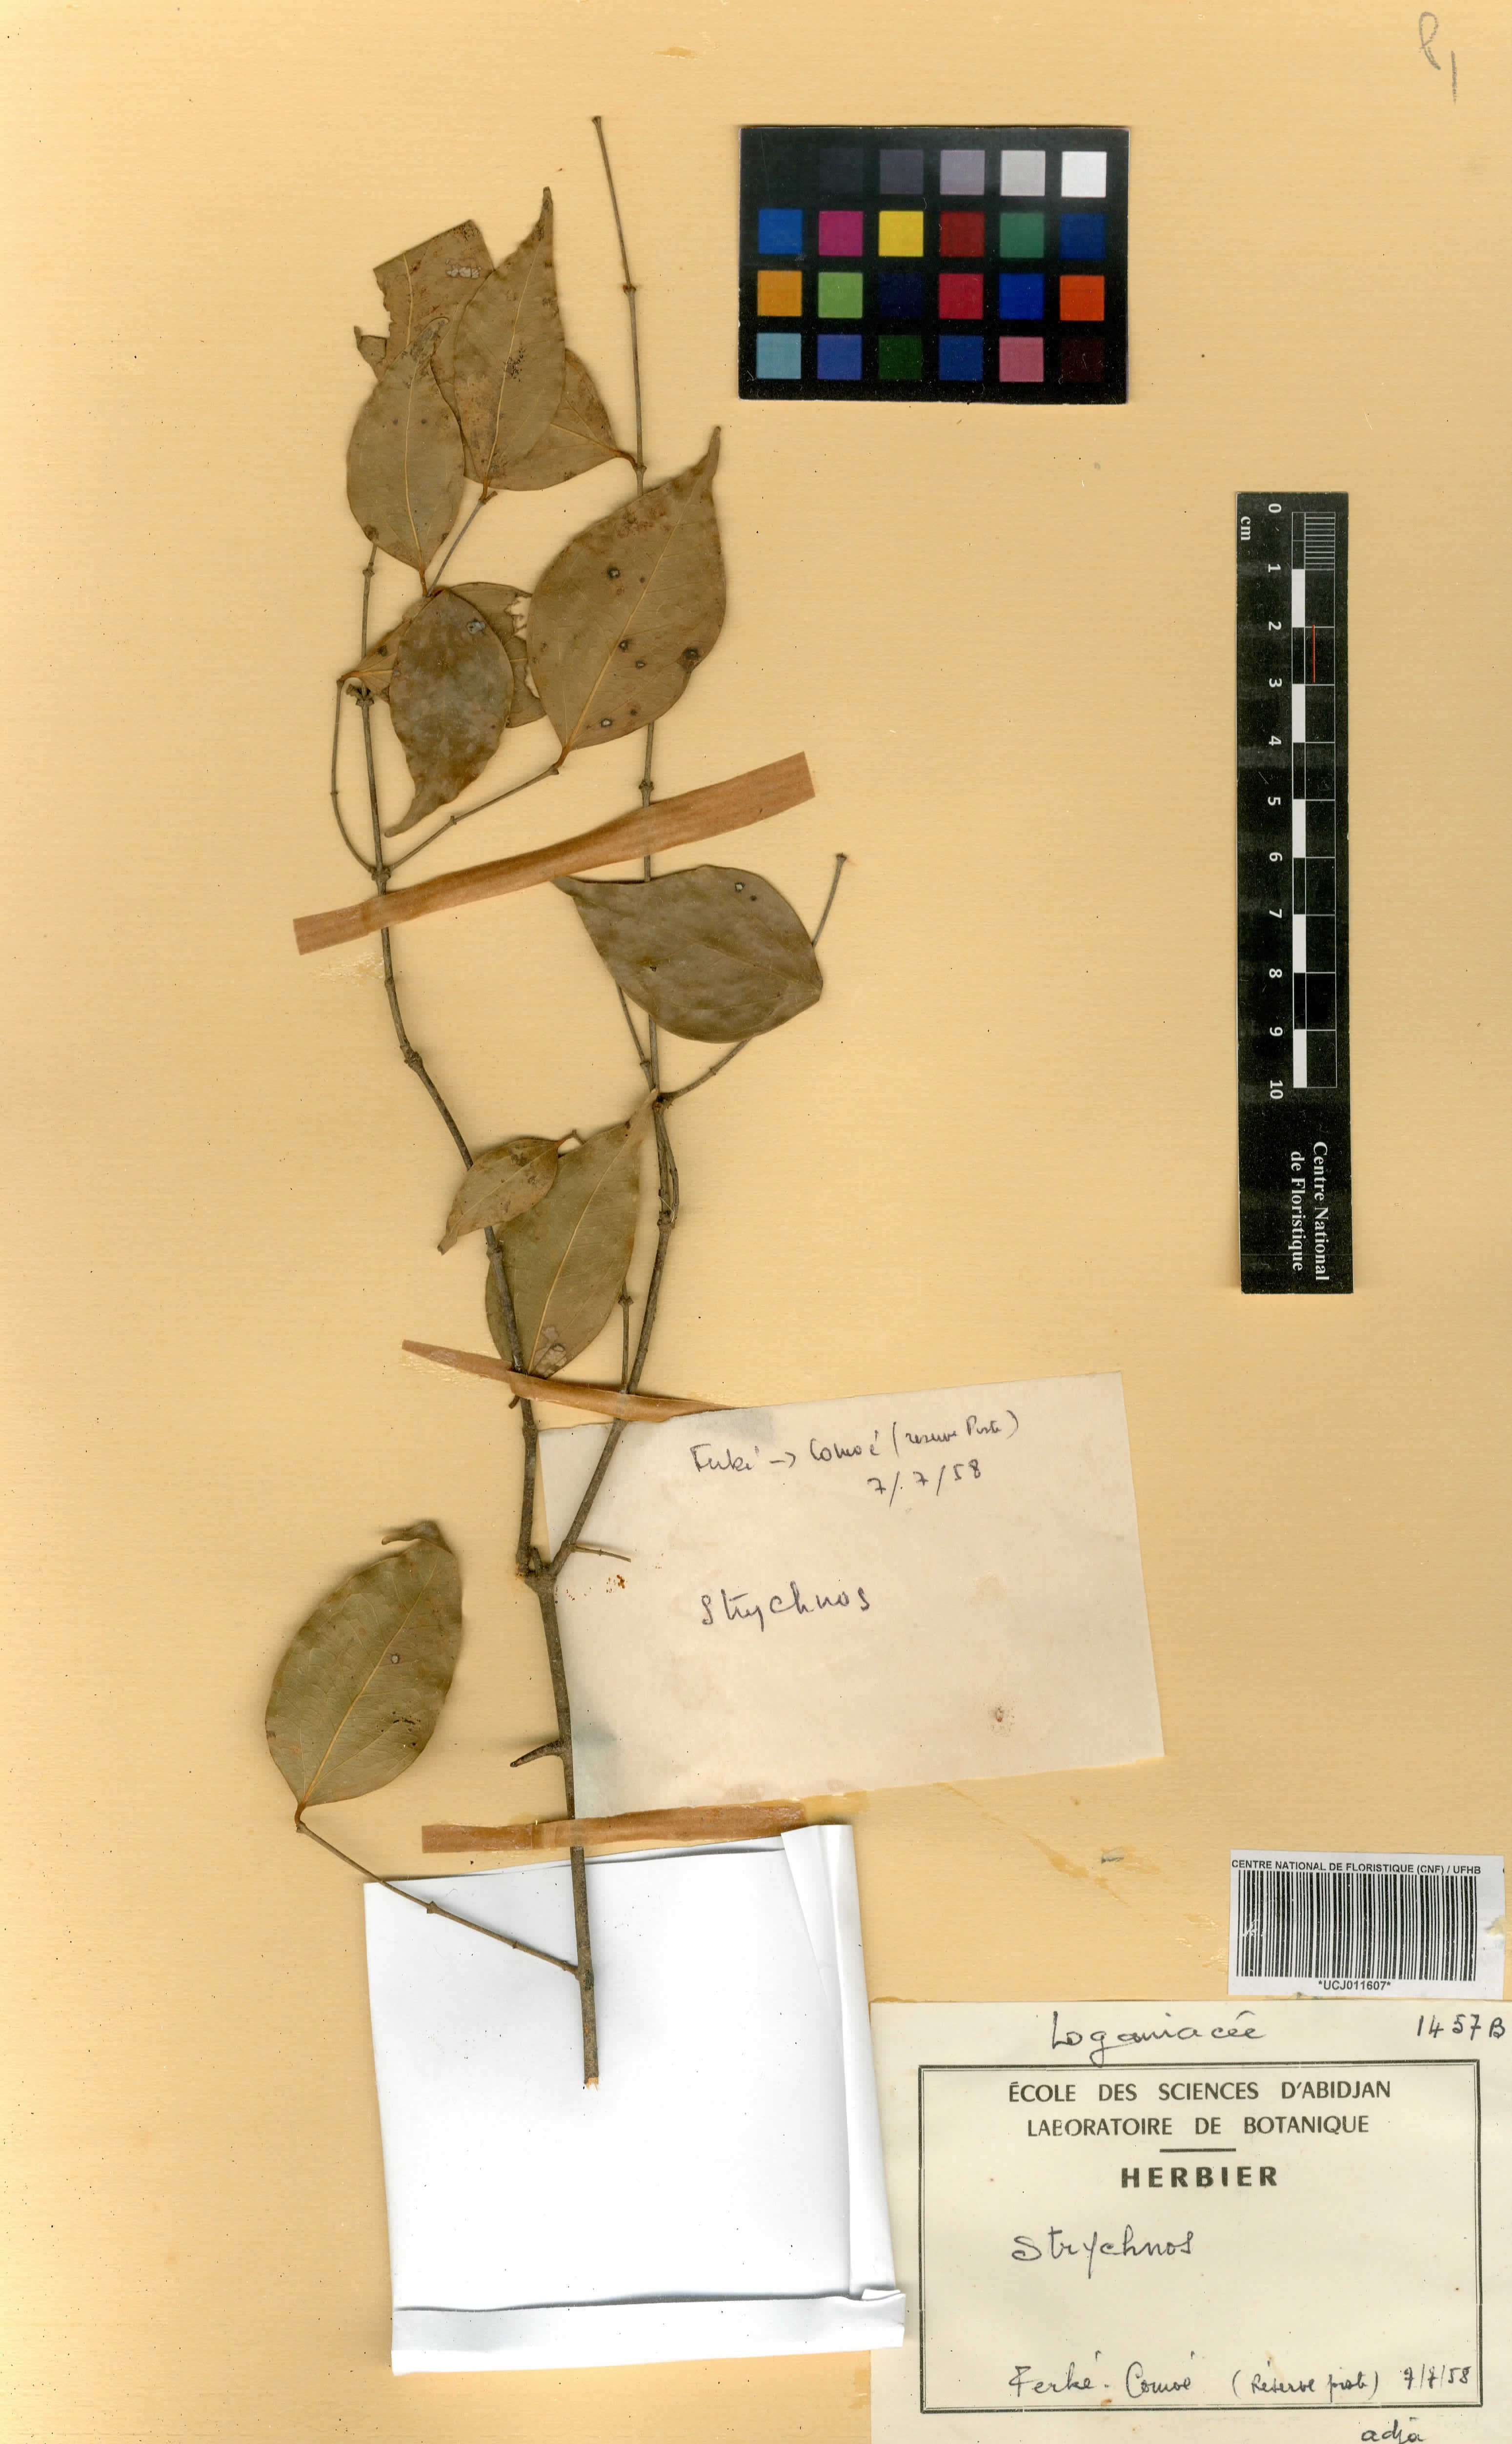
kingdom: Plantae
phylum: Tracheophyta
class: Magnoliopsida
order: Gentianales
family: Loganiaceae
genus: Strychnos
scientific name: Strychnos
